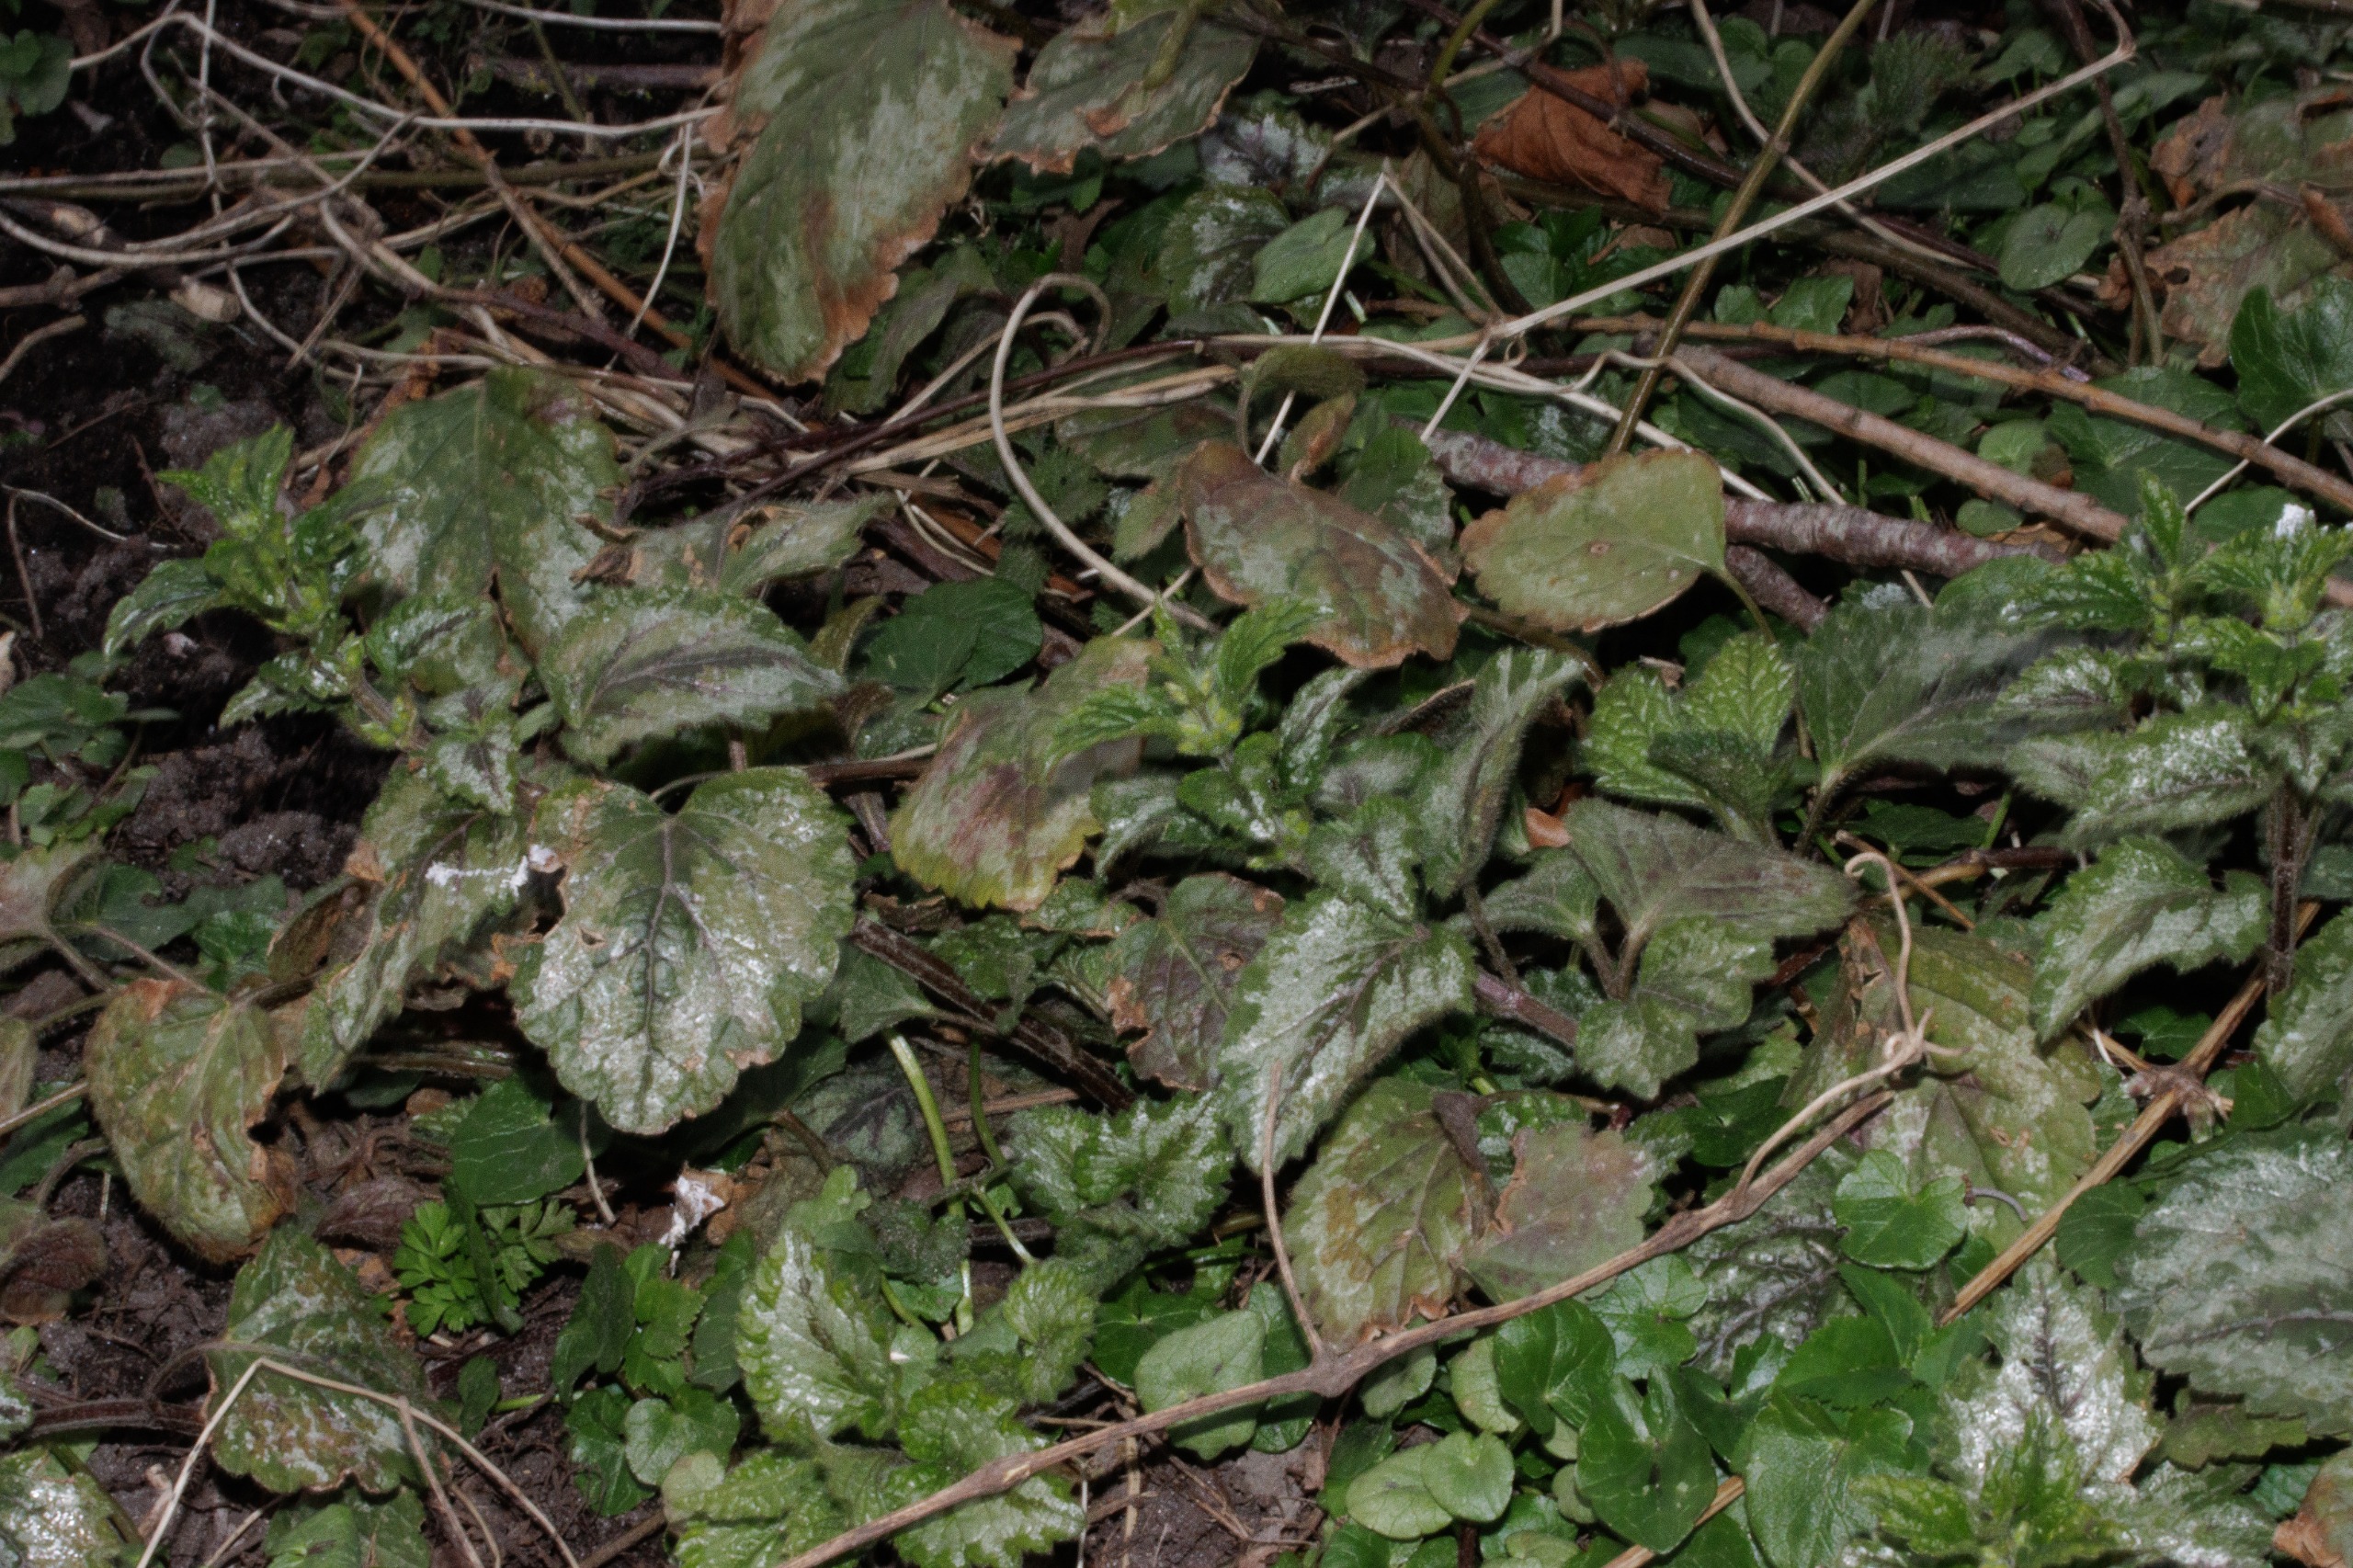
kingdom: Plantae
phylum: Tracheophyta
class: Magnoliopsida
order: Lamiales
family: Lamiaceae
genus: Lamium
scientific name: Lamium galeobdolon
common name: Have-guldnælde
